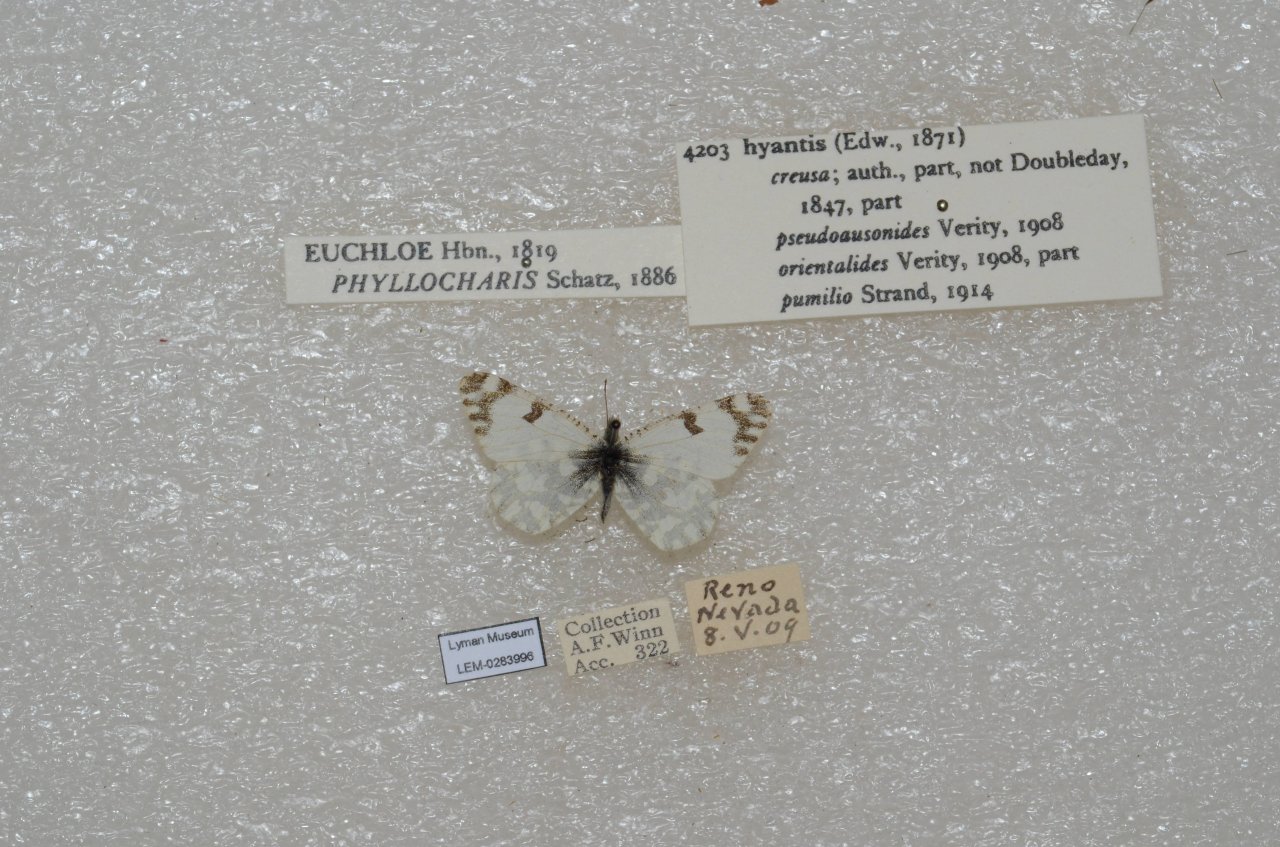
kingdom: Animalia
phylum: Arthropoda
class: Insecta
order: Lepidoptera
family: Pieridae
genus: Euchloe
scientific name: Euchloe hyantis
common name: California Marble
